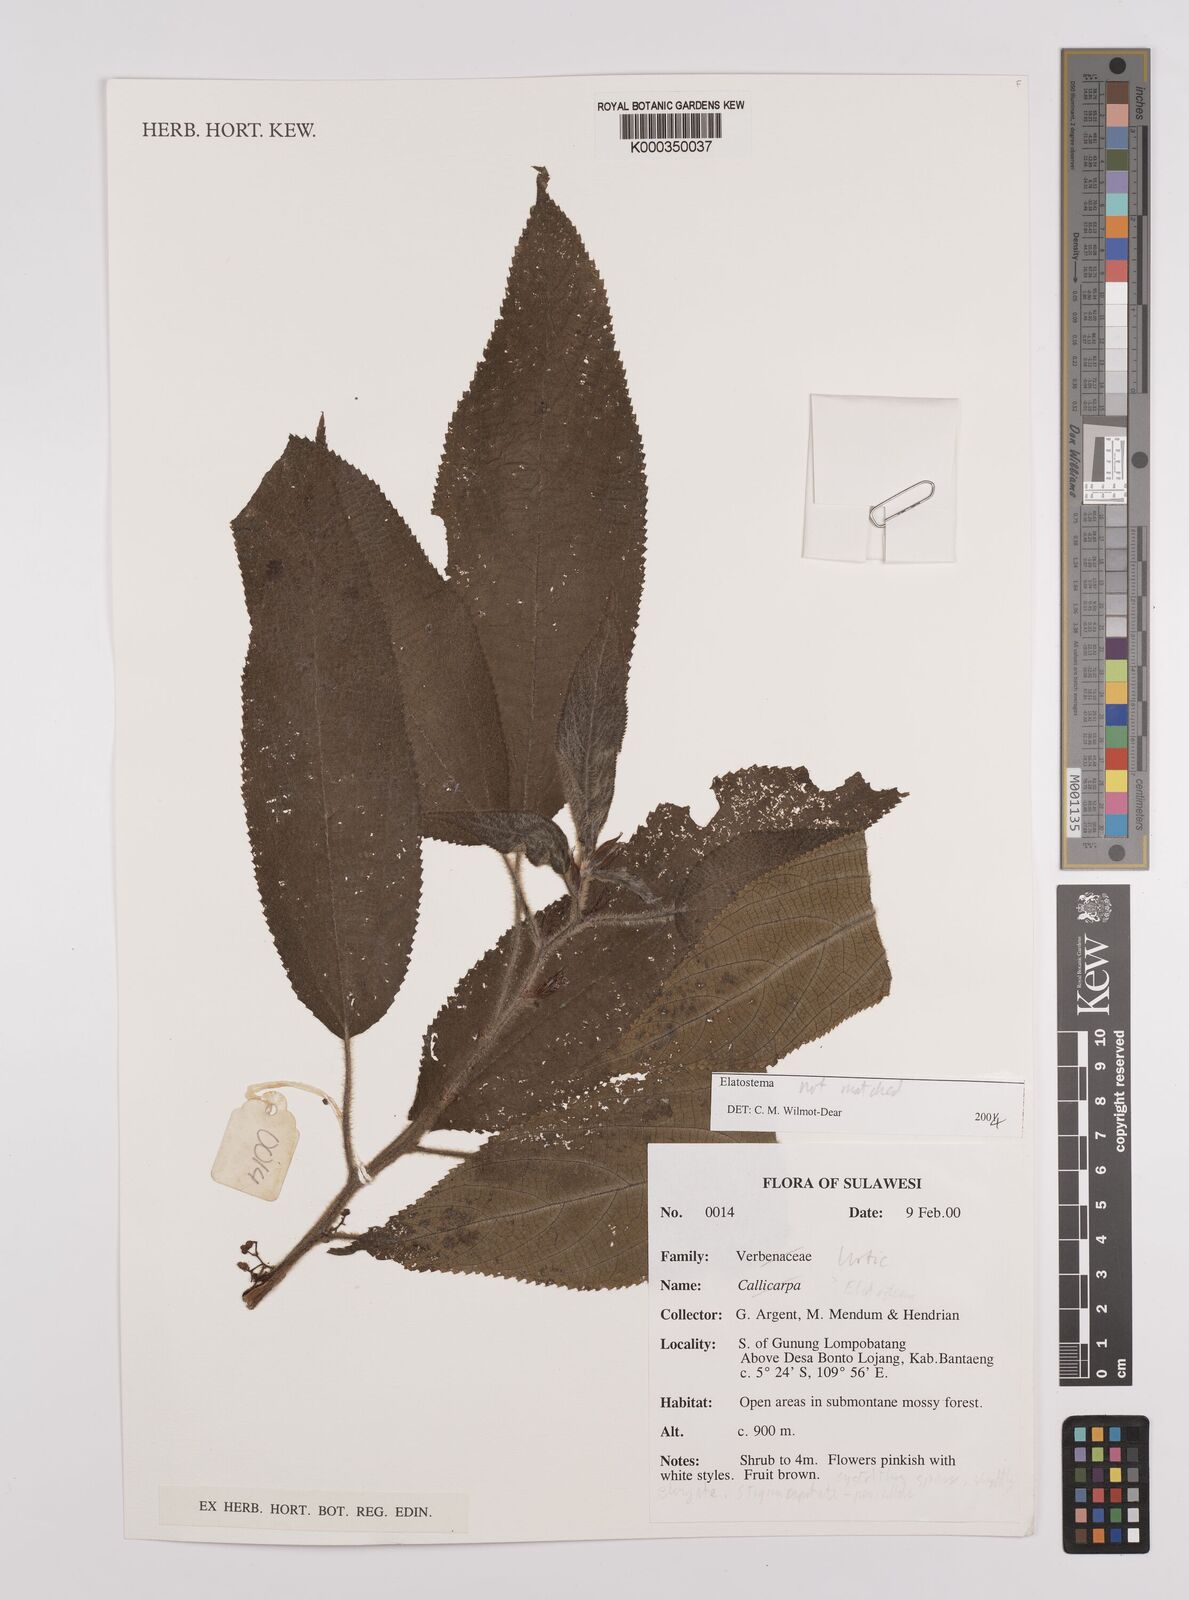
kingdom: Plantae
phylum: Tracheophyta
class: Magnoliopsida
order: Rosales
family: Urticaceae
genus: Elatostema
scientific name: Elatostema
